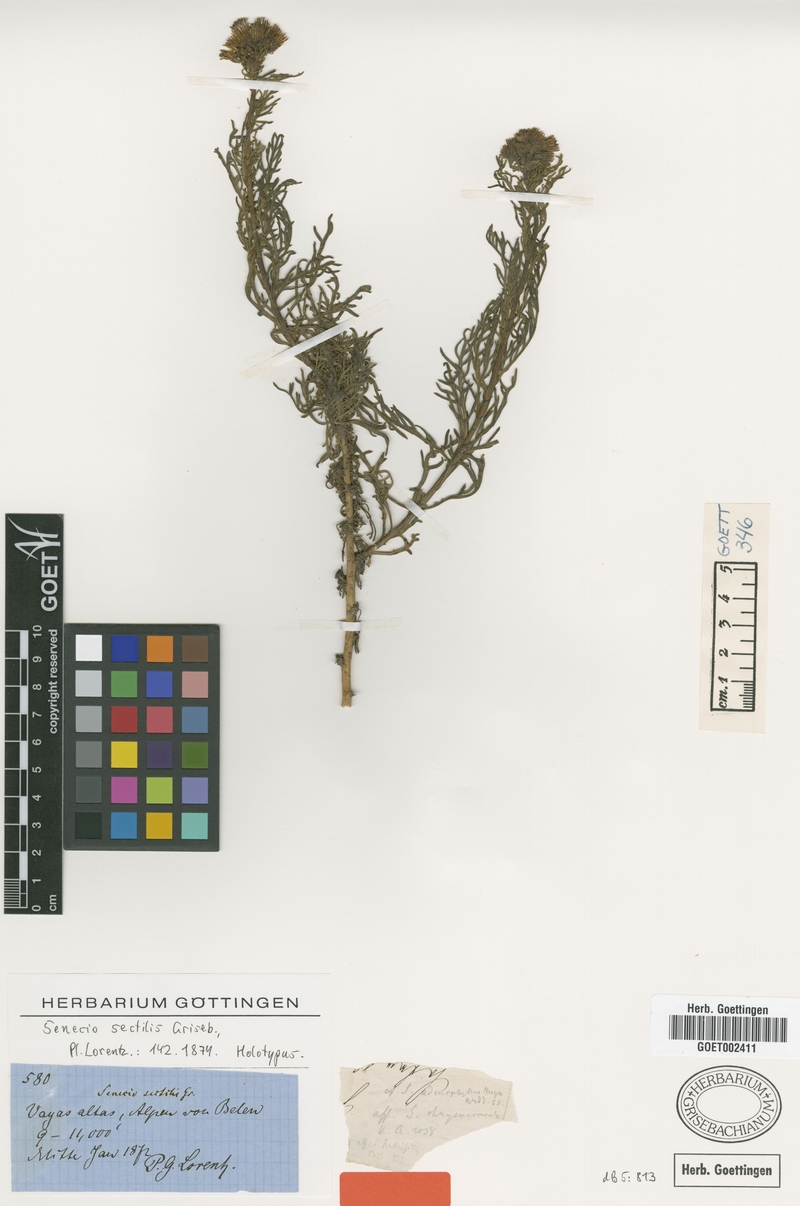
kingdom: Plantae
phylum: Tracheophyta
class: Magnoliopsida
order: Asterales
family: Asteraceae
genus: Senecio
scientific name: Senecio sectilis
